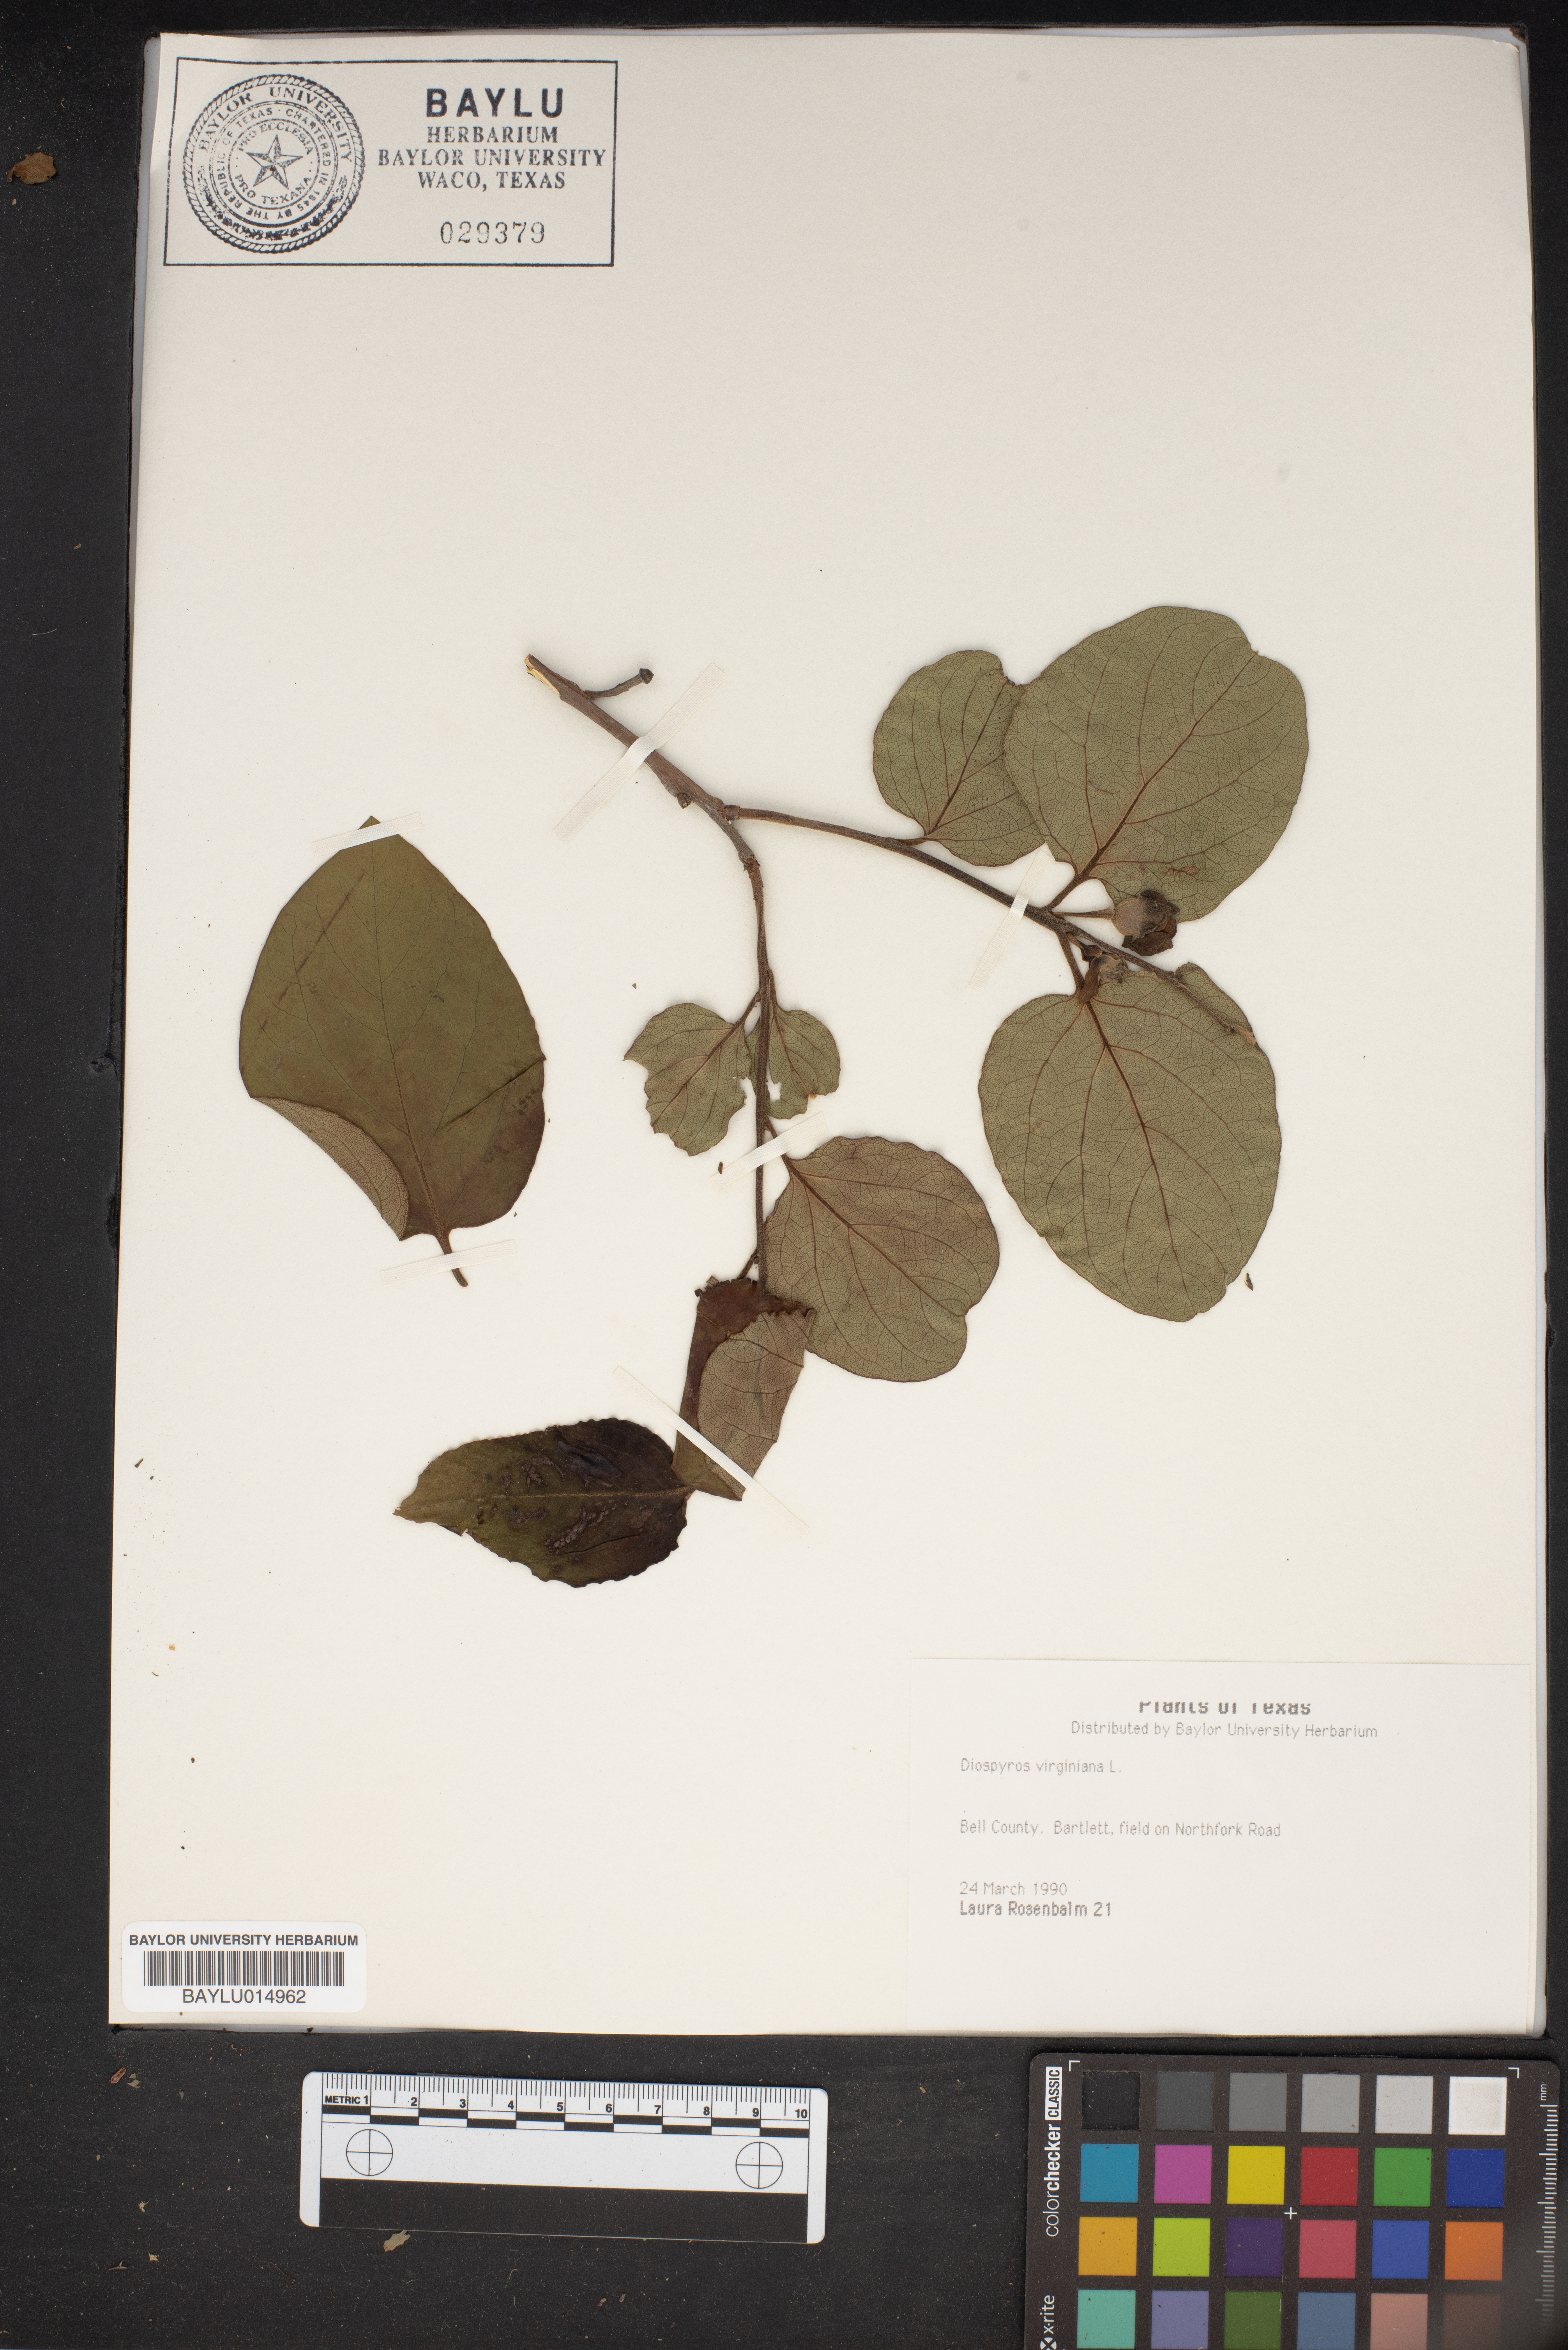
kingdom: Plantae
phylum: Tracheophyta
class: Magnoliopsida
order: Ericales
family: Ebenaceae
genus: Diospyros
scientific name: Diospyros virginiana
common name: Persimmon
